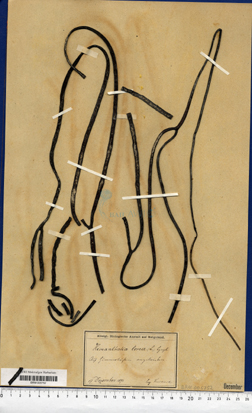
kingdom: Chromista
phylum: Ochrophyta
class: Phaeophyceae
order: Fucales
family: Himanthaliaceae
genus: Himanthalia
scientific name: Himanthalia elongata
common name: Sea-thong
